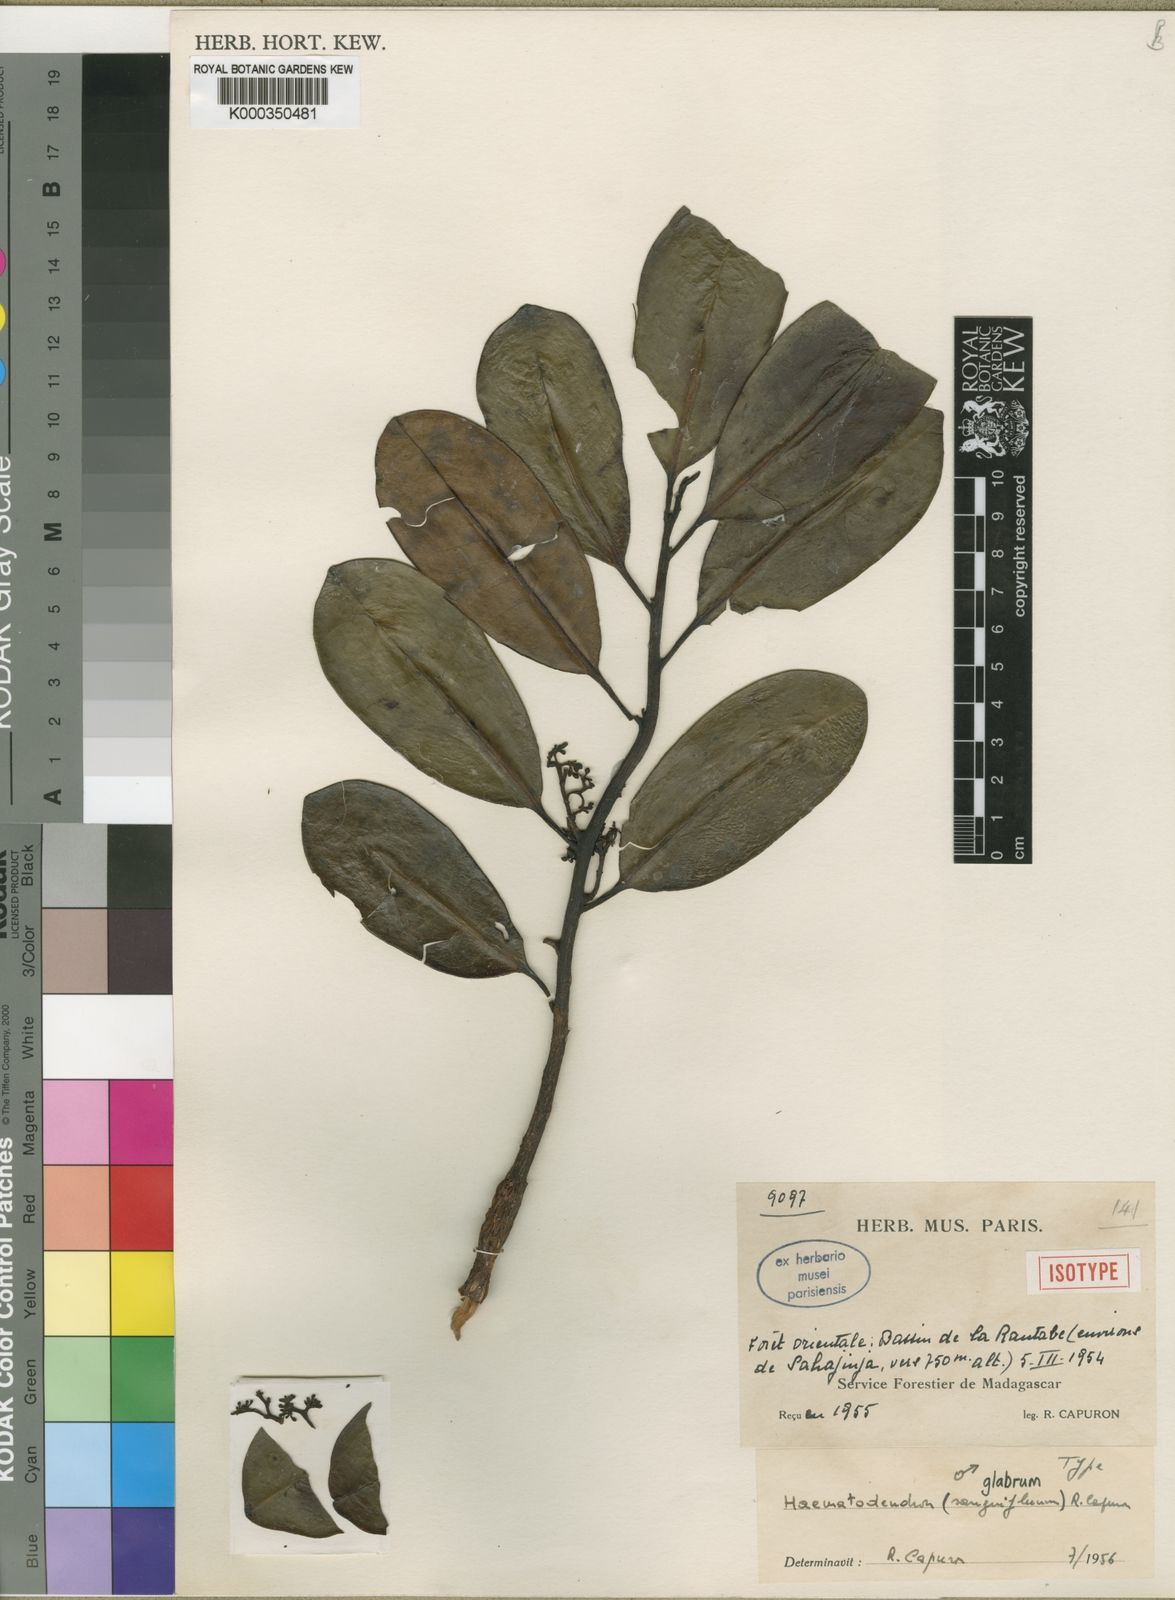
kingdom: Plantae
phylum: Tracheophyta
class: Magnoliopsida
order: Magnoliales
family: Myristicaceae
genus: Haematodendron
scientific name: Haematodendron glabrum
